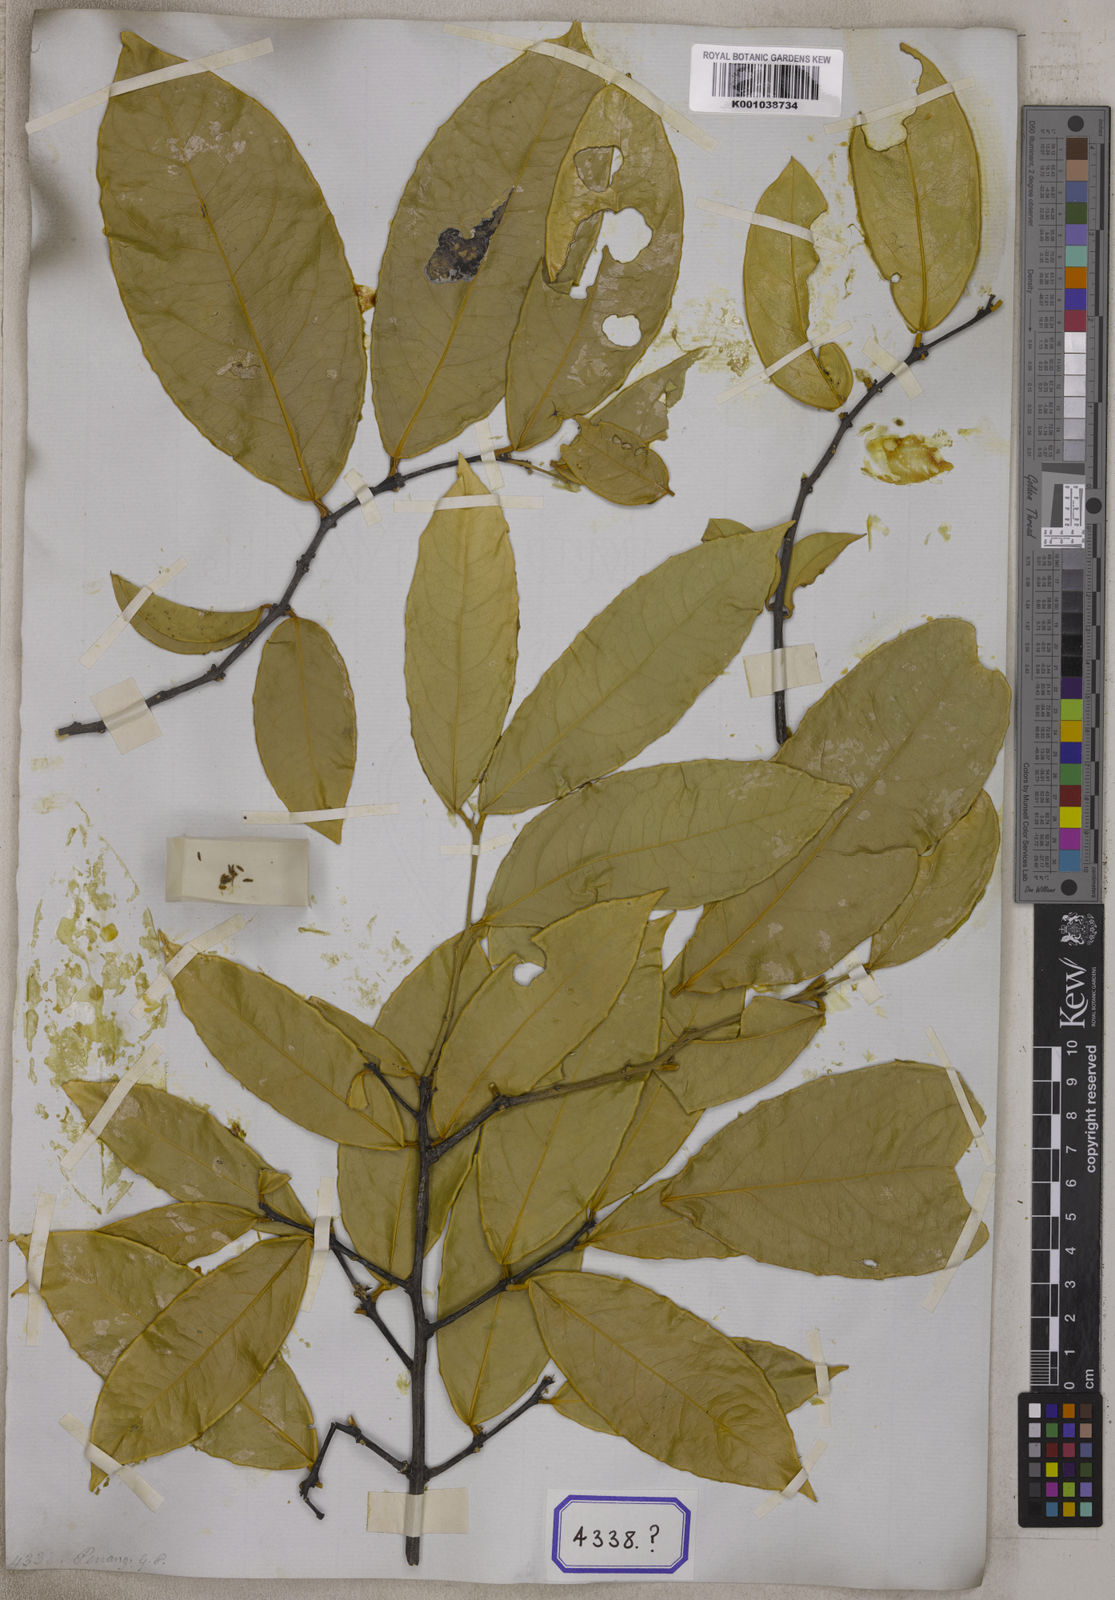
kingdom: Plantae
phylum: Tracheophyta
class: Magnoliopsida
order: Malpighiales
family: Rhizophoraceae
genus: Gynotroches
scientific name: Gynotroches axillaris
